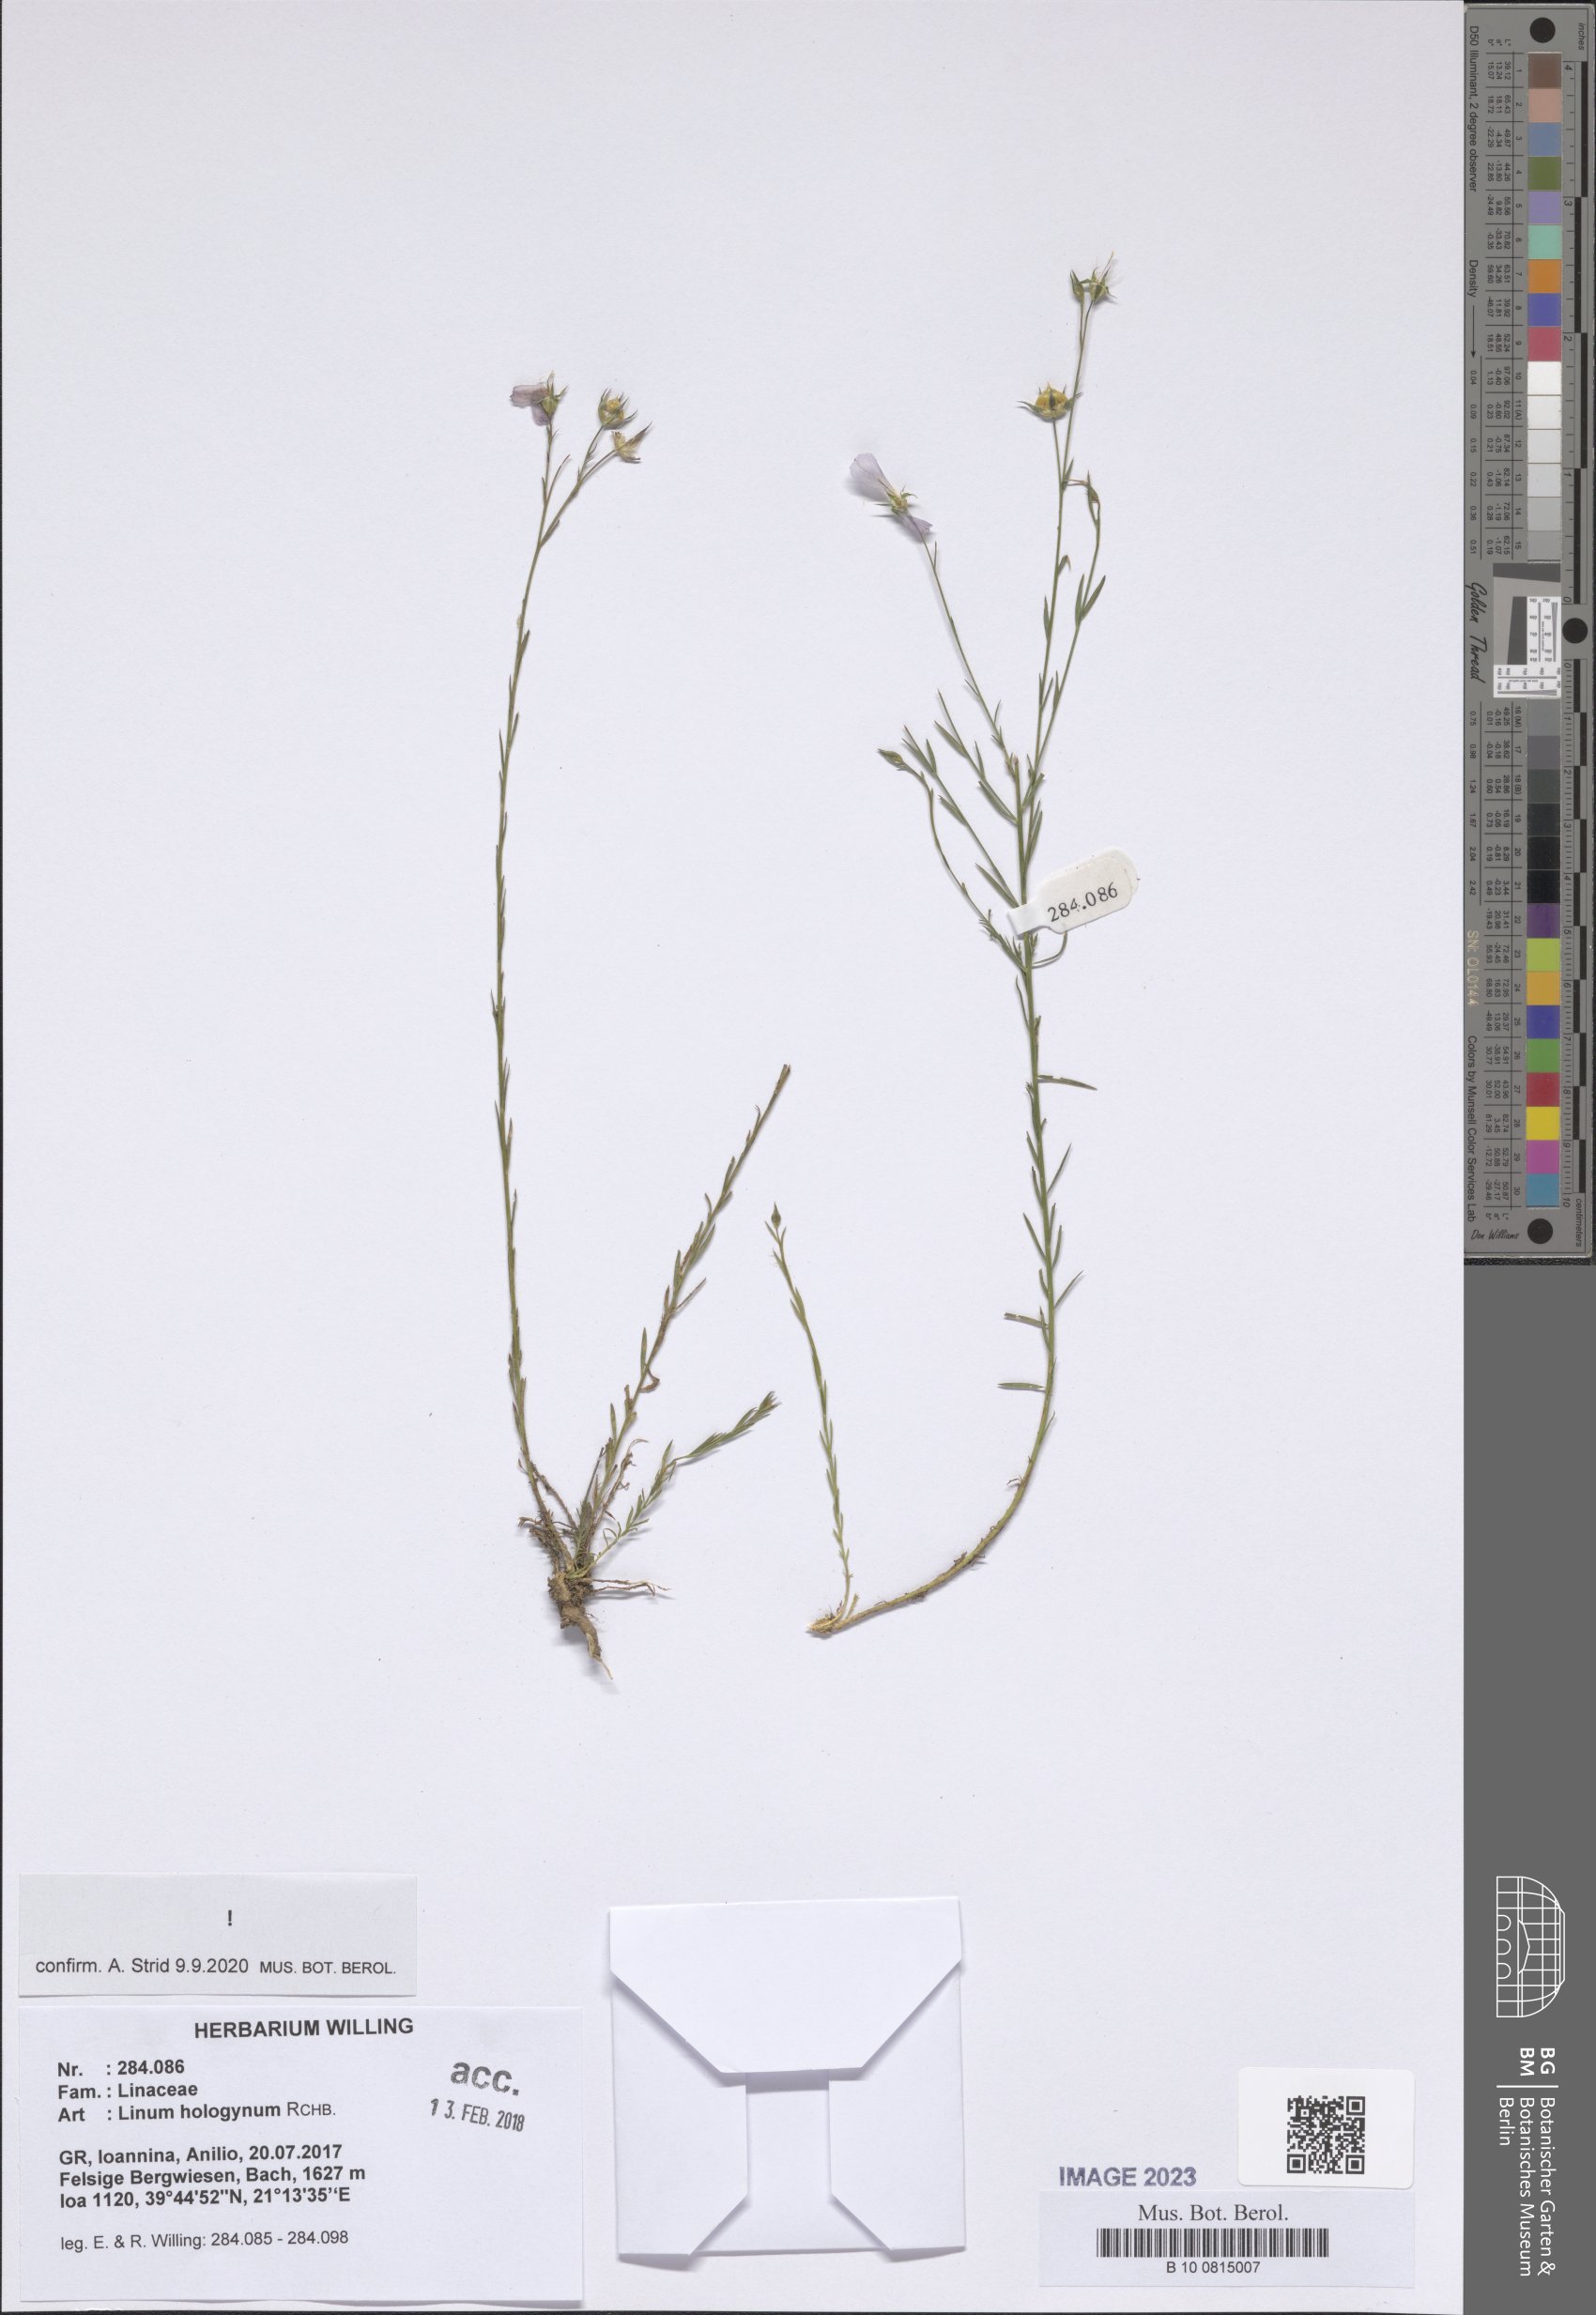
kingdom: Plantae
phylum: Tracheophyta
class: Magnoliopsida
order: Malpighiales
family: Linaceae
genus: Linum
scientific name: Linum hologynum
